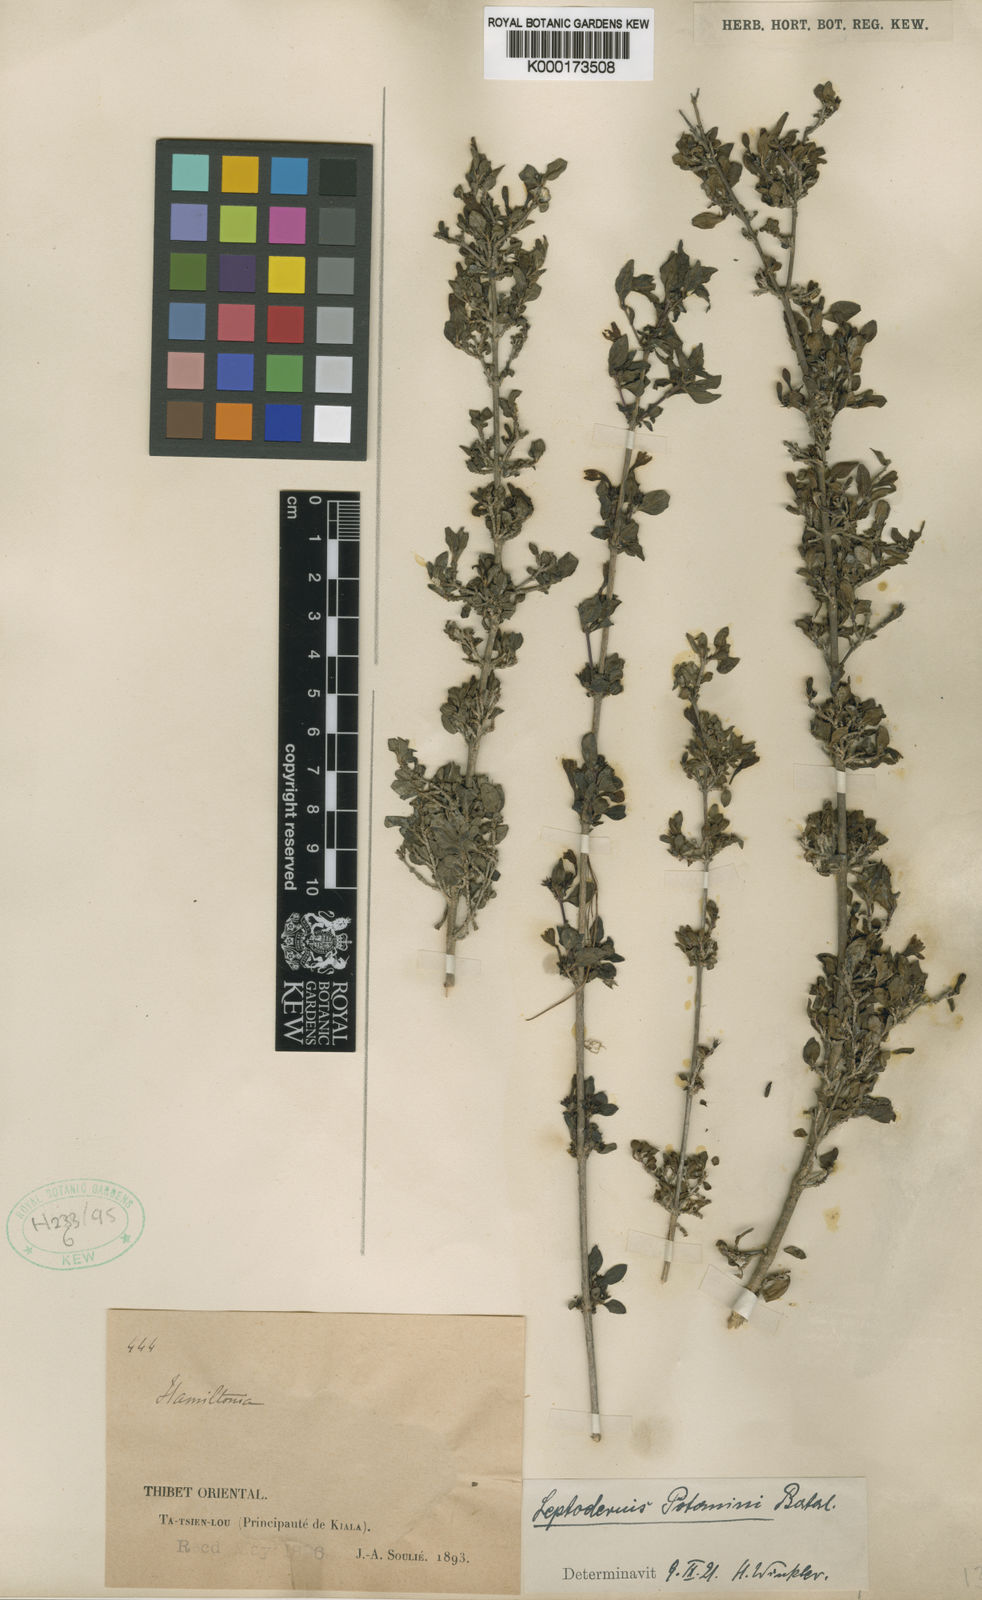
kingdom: Plantae
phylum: Tracheophyta
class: Magnoliopsida
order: Gentianales
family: Rubiaceae
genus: Leptodermis
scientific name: Leptodermis purdomii
